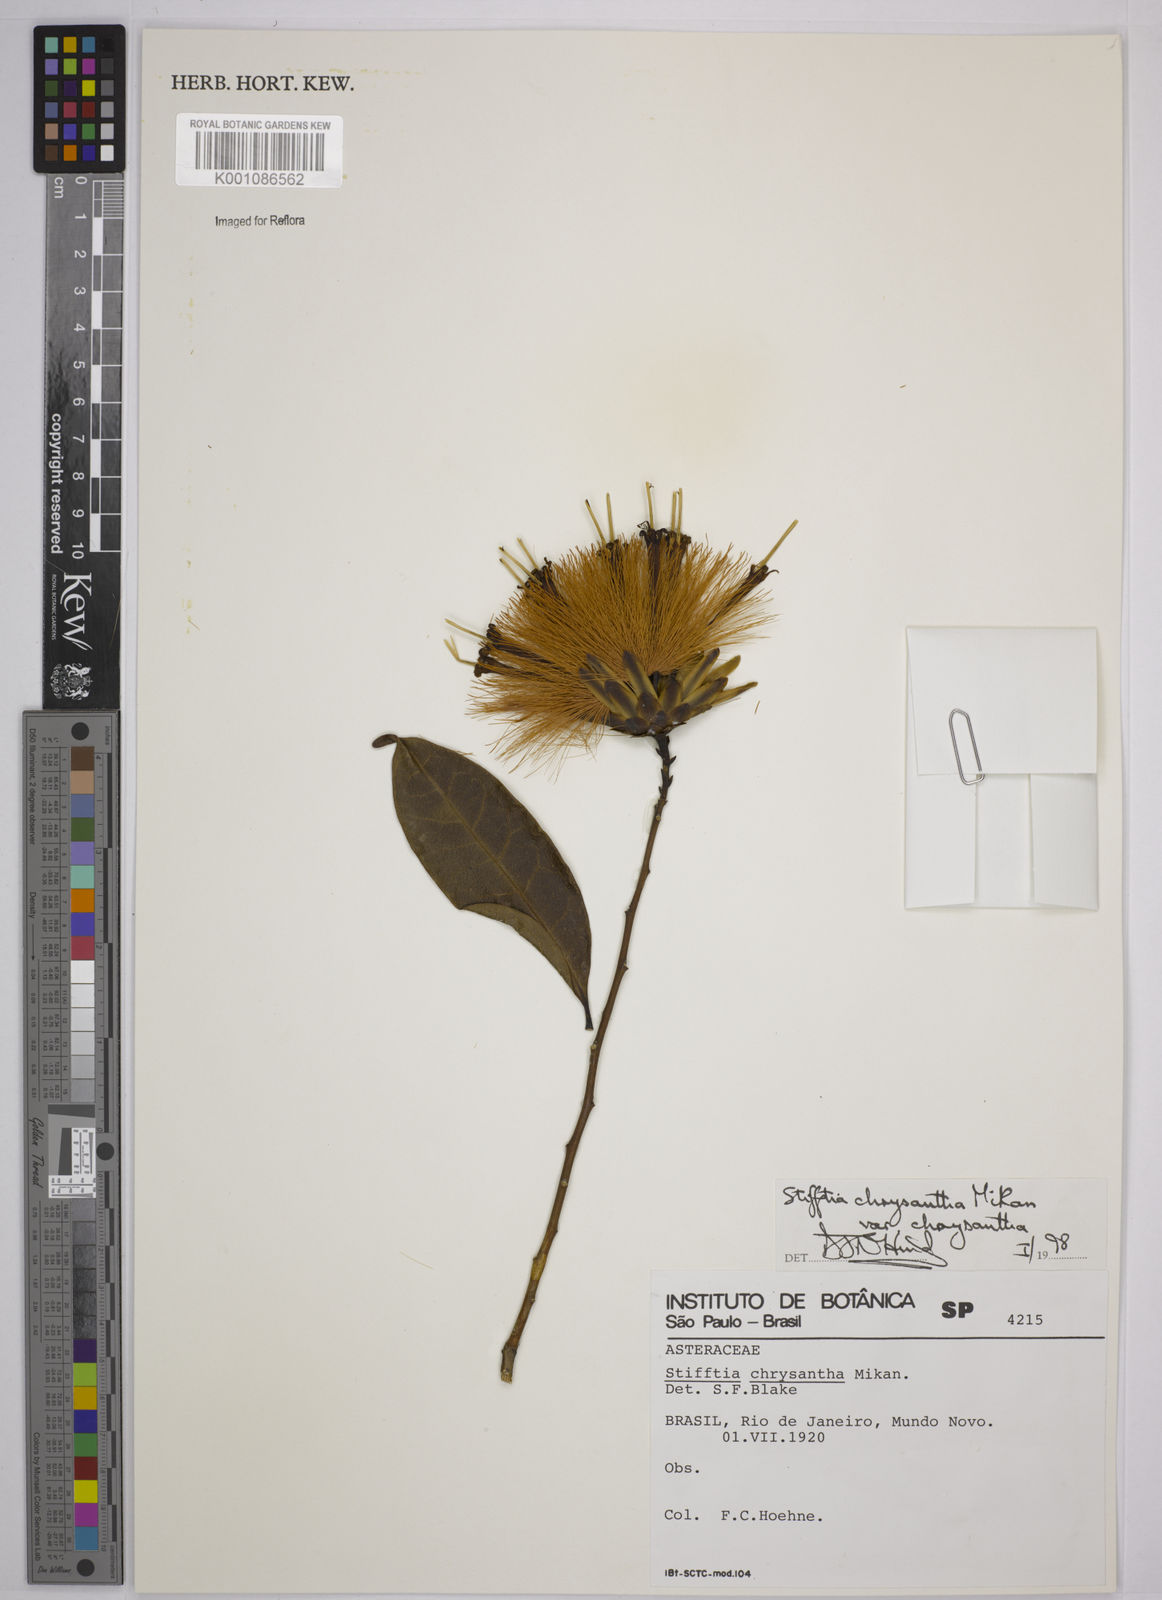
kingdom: Plantae
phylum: Tracheophyta
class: Magnoliopsida
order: Asterales
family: Asteraceae
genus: Stifftia
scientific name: Stifftia chrysantha
